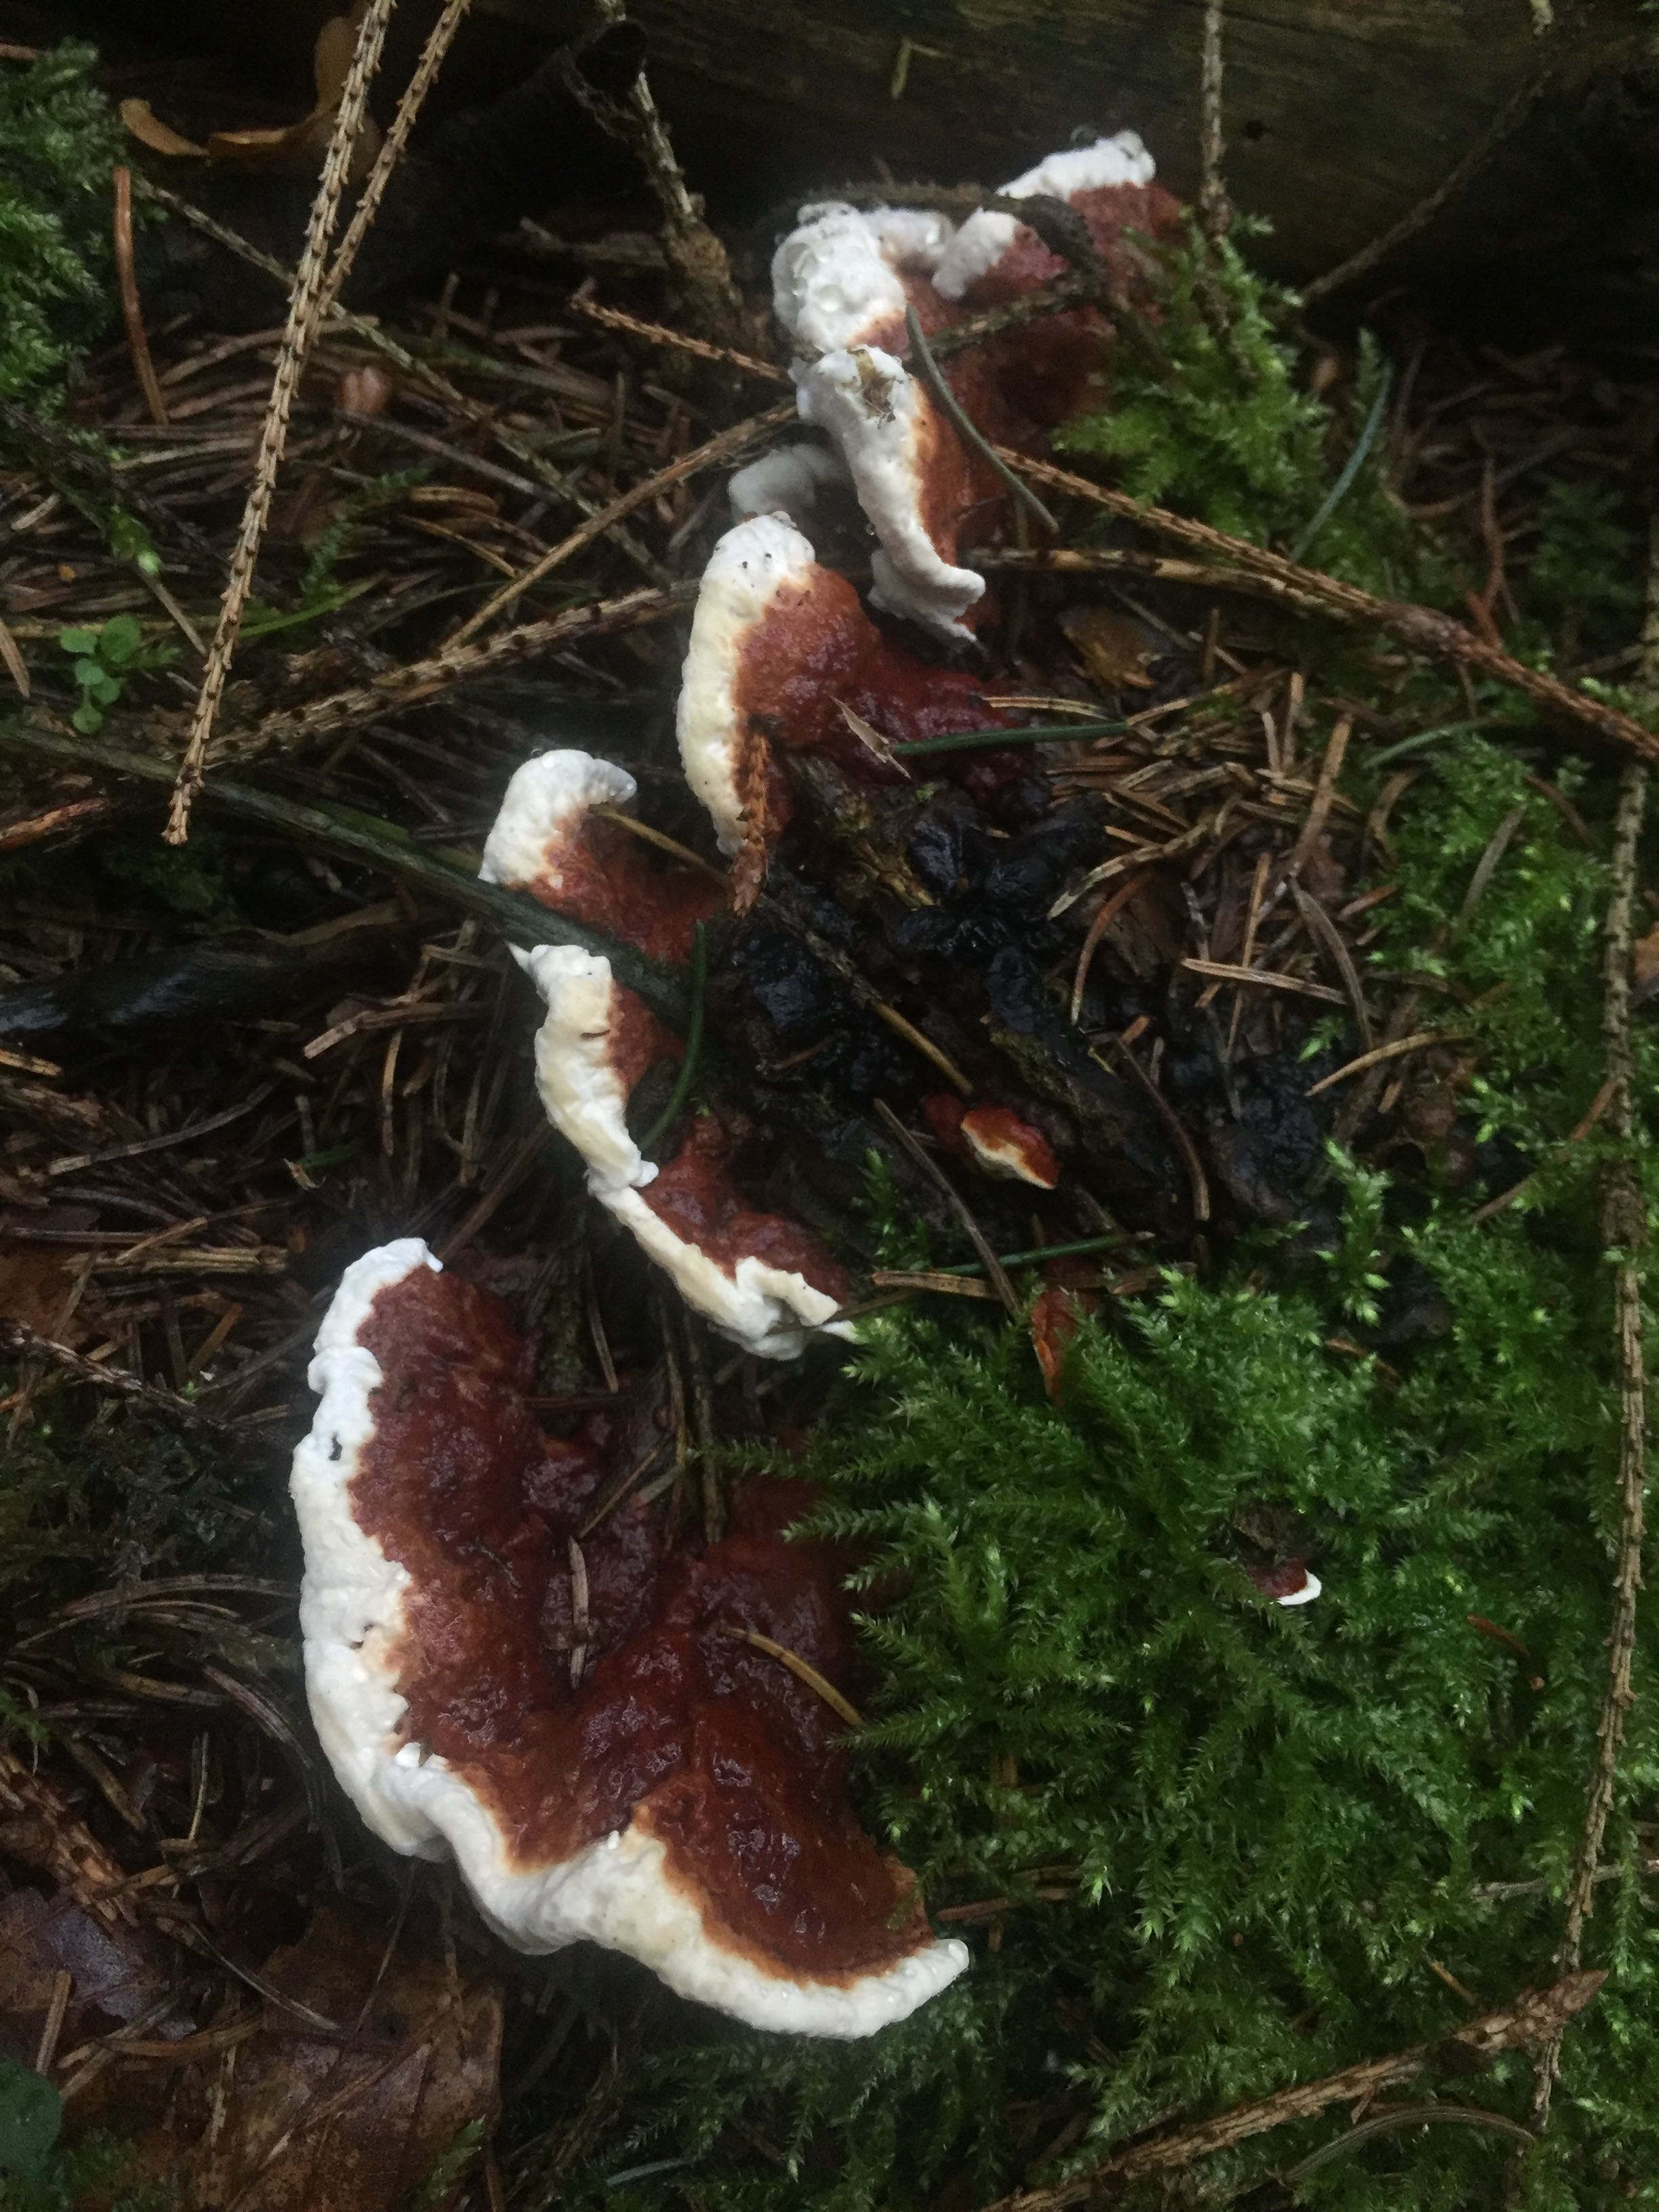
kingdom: Fungi
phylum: Basidiomycota
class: Agaricomycetes
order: Russulales
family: Bondarzewiaceae
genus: Heterobasidion
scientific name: Heterobasidion
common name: rodfordærver
